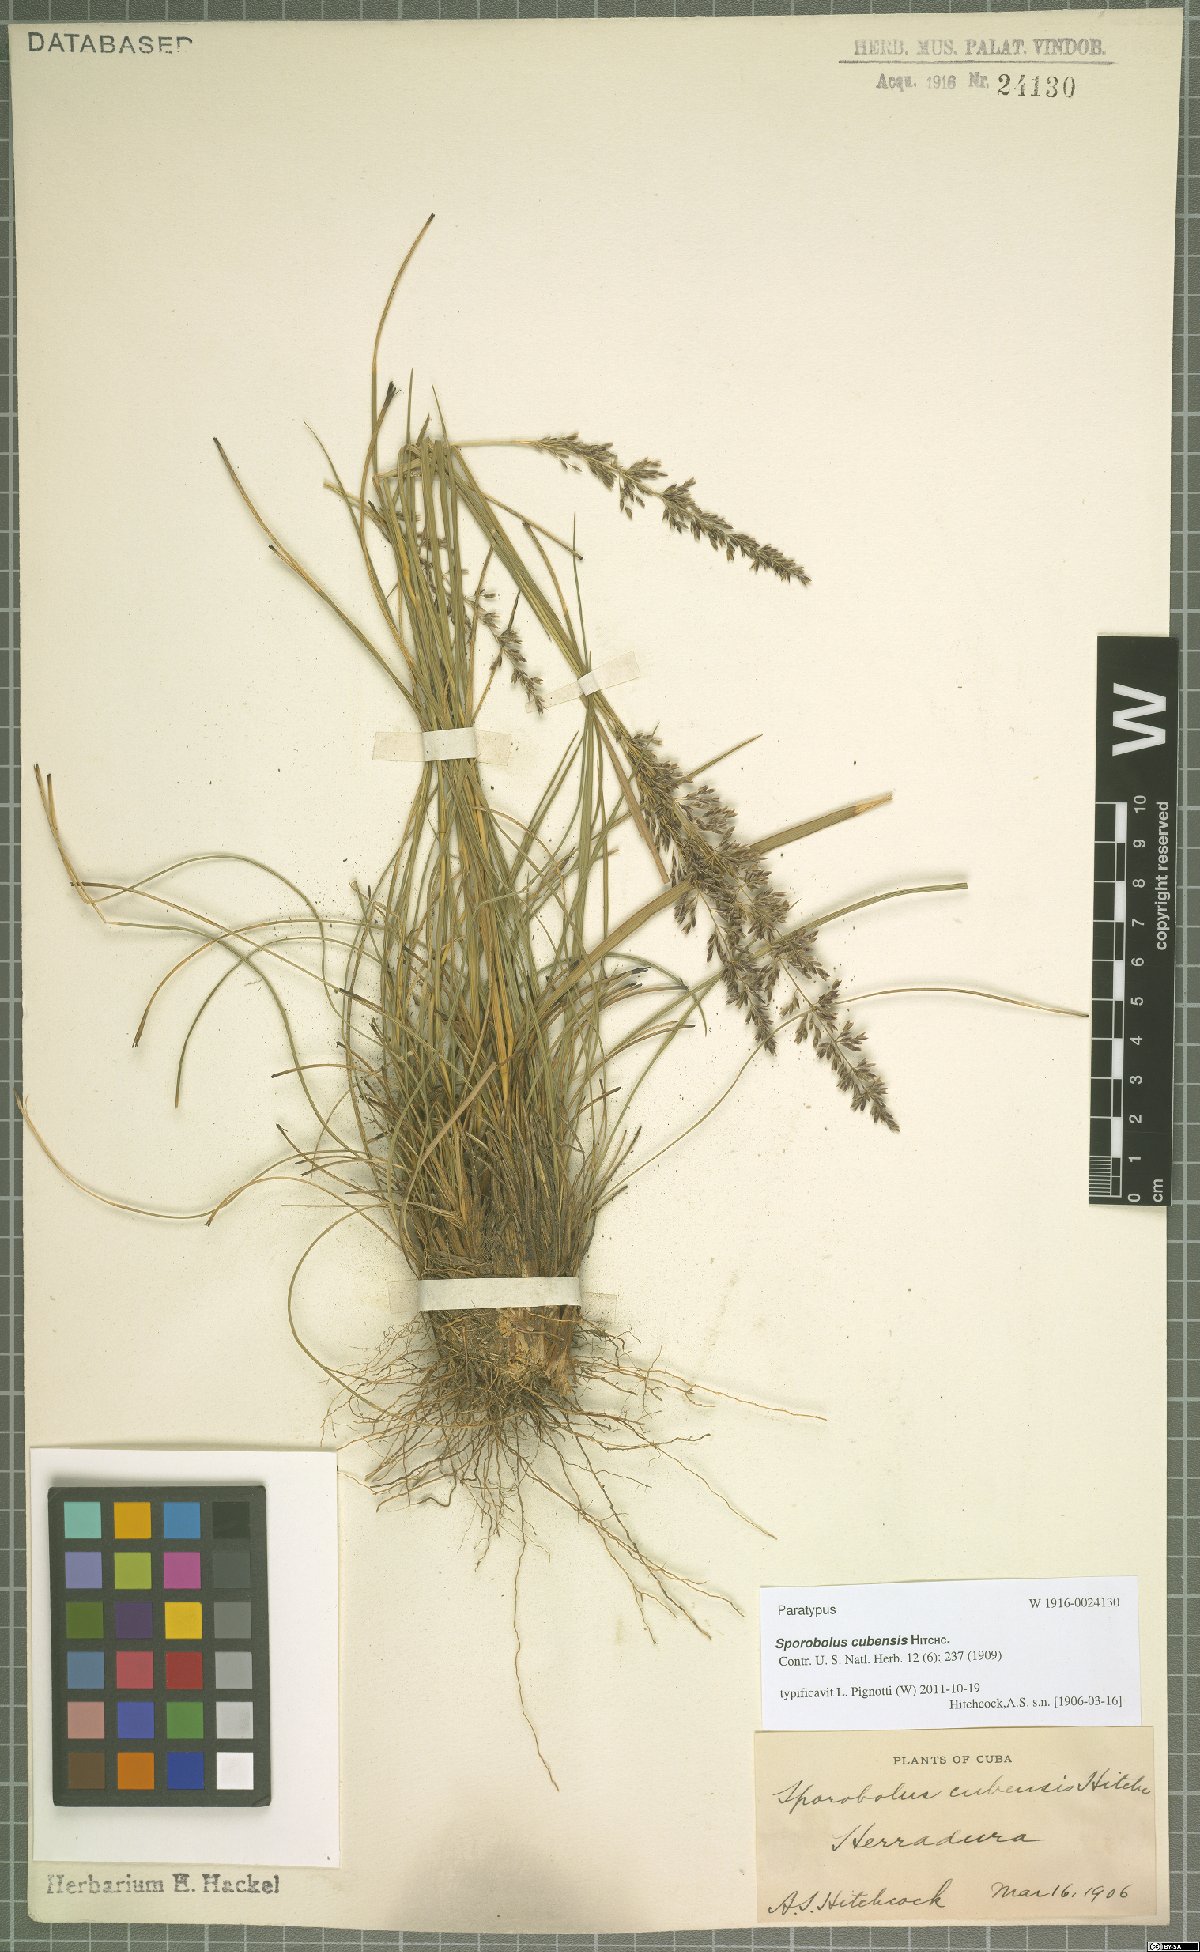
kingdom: Plantae
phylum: Tracheophyta
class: Liliopsida
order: Poales
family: Poaceae
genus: Sporobolus
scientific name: Sporobolus cubensis
